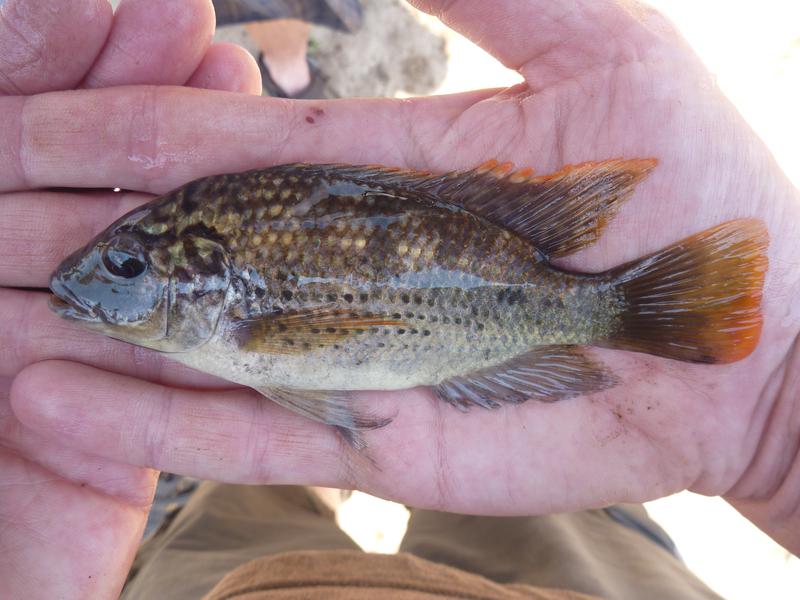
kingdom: Animalia
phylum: Chordata
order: Perciformes
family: Cichlidae
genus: Oreochromis
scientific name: Oreochromis shiranus
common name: Chilwa tilapia
